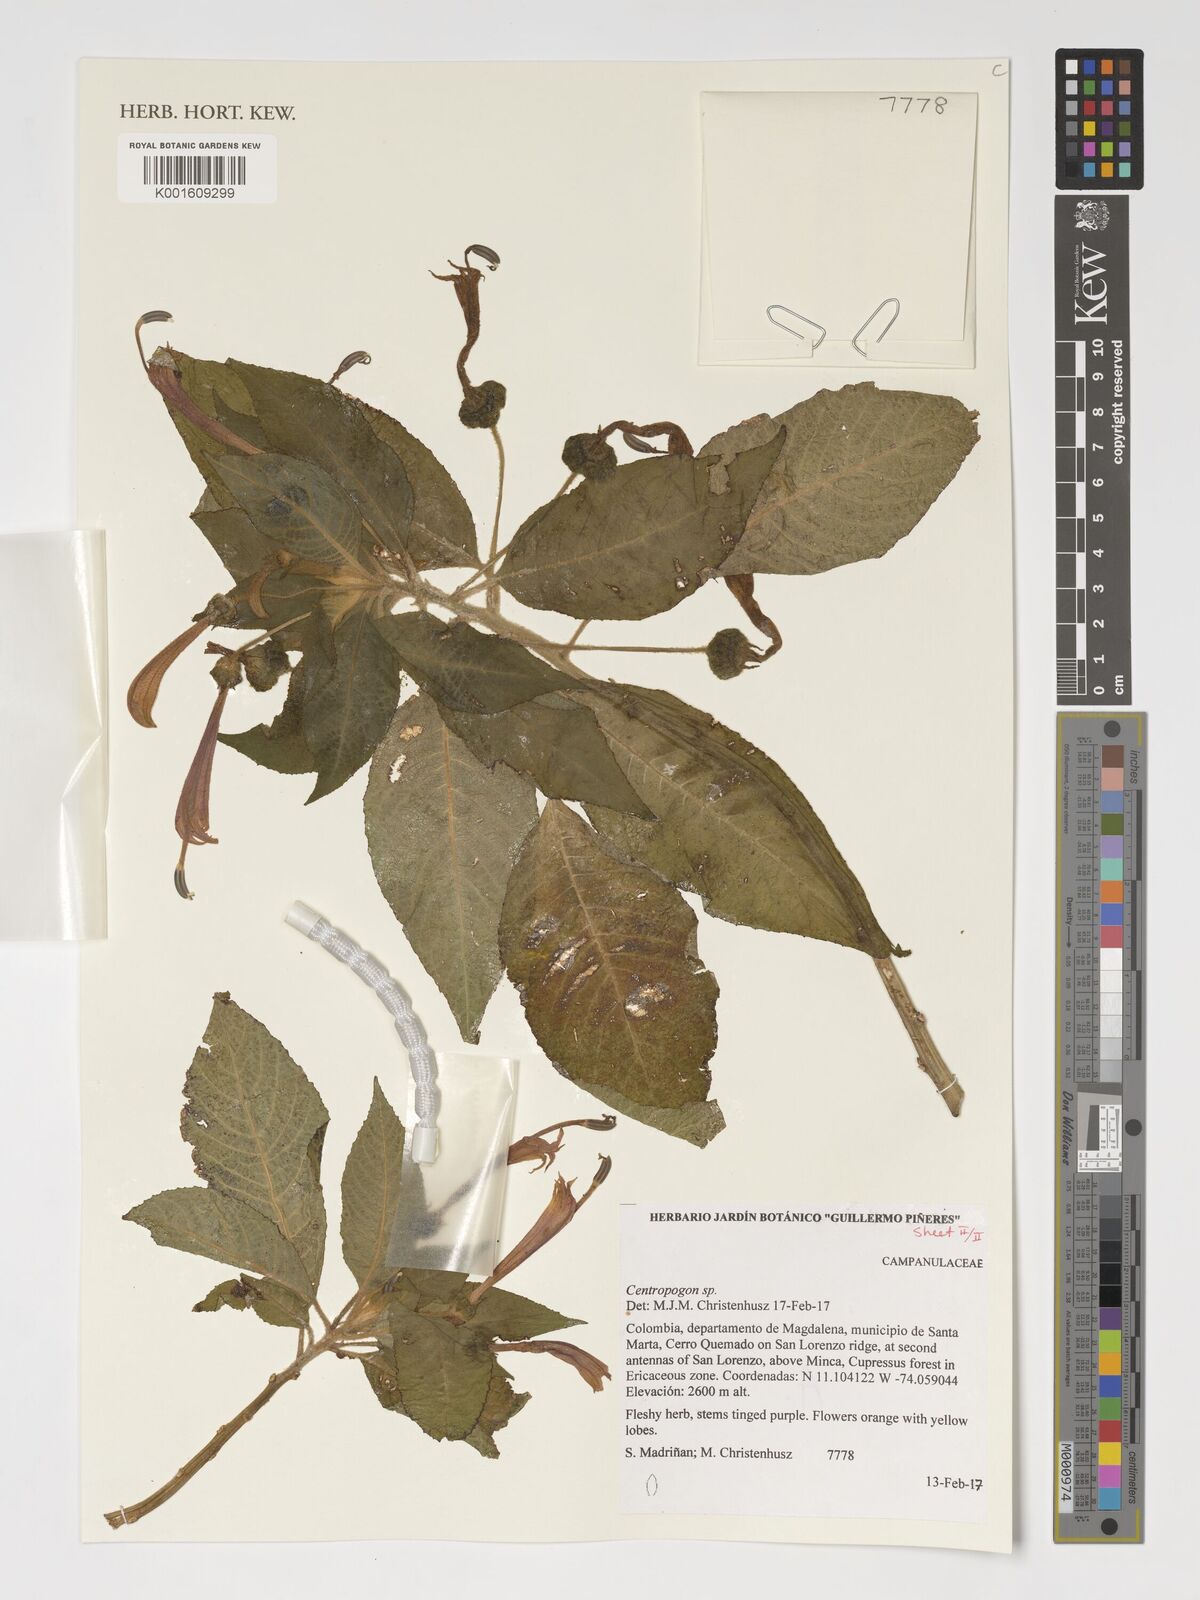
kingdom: Plantae
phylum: Tracheophyta
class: Magnoliopsida
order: Asterales
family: Campanulaceae
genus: Centropogon
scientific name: Centropogon
